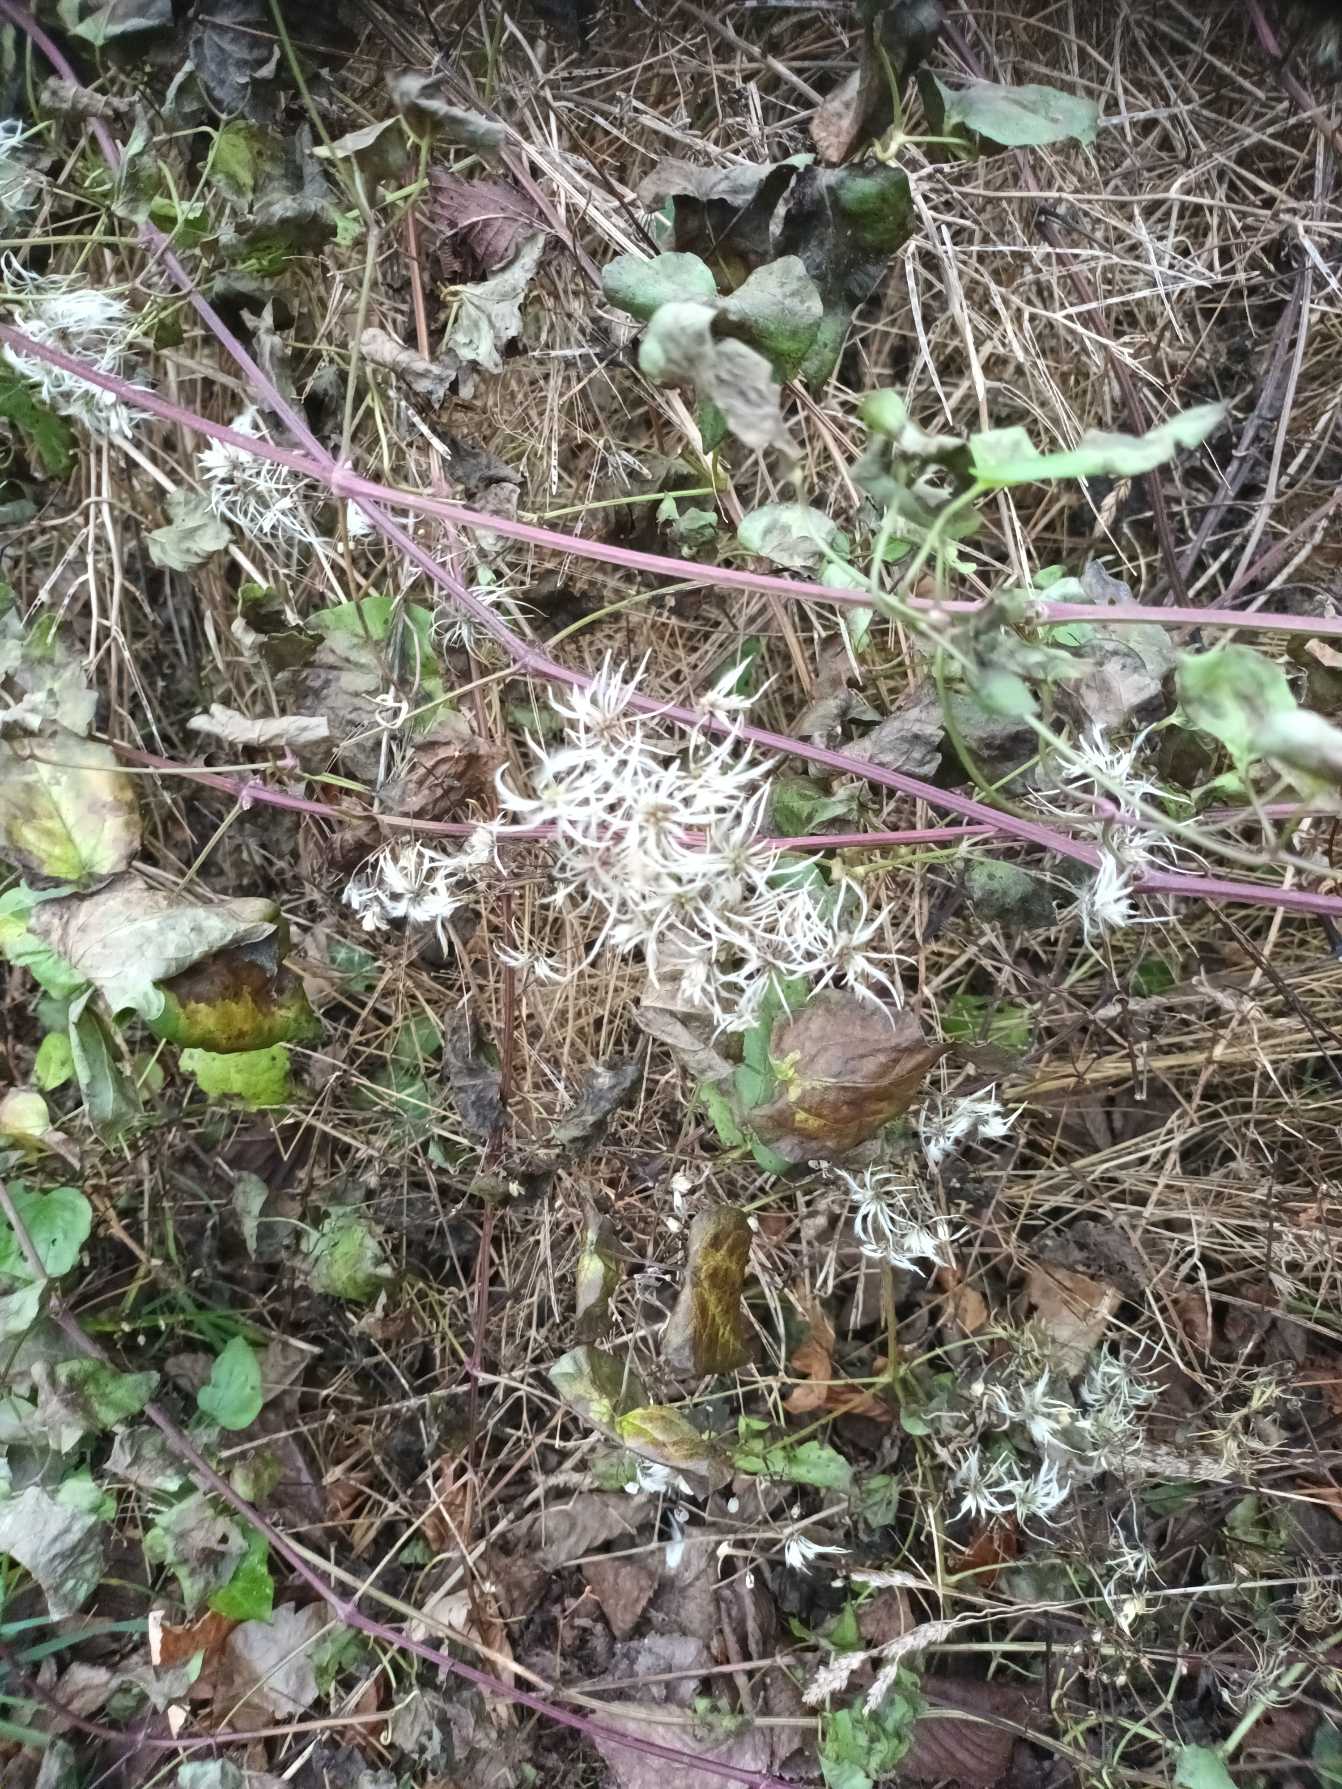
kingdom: Plantae
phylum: Tracheophyta
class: Magnoliopsida
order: Ranunculales
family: Ranunculaceae
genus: Clematis
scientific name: Clematis vitalba
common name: Skovranke
